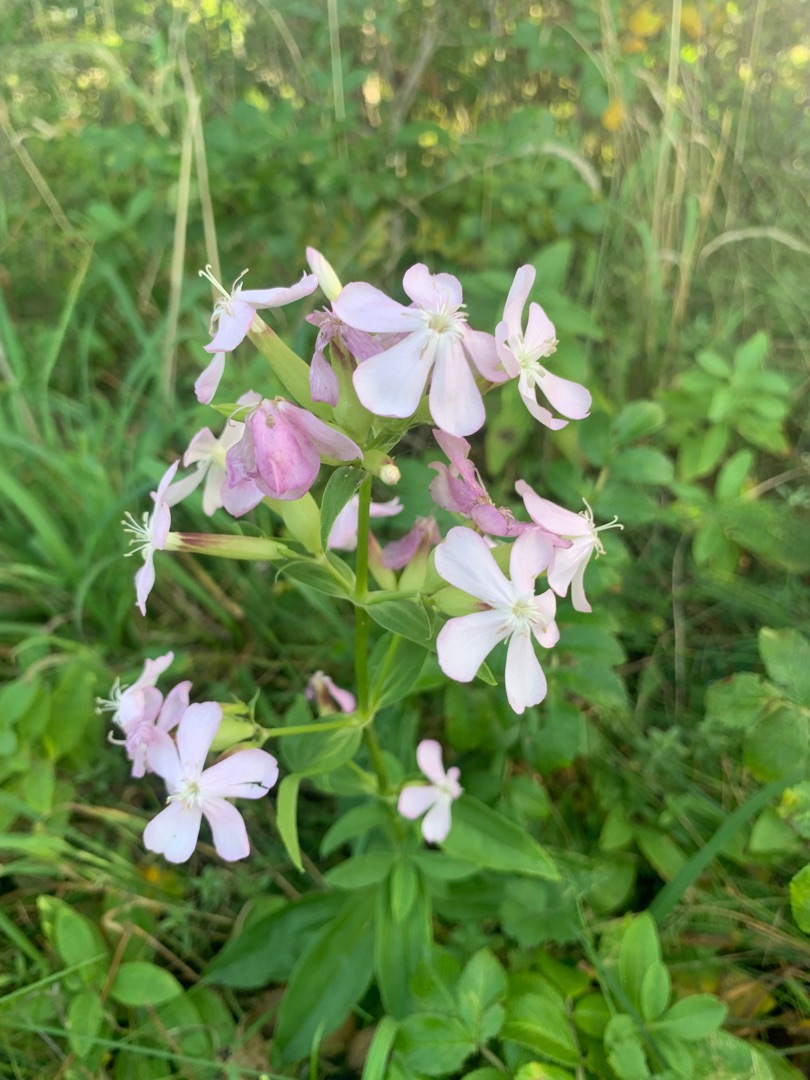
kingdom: Plantae
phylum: Tracheophyta
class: Magnoliopsida
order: Caryophyllales
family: Caryophyllaceae
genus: Saponaria
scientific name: Saponaria officinalis
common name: Sæbeurt
